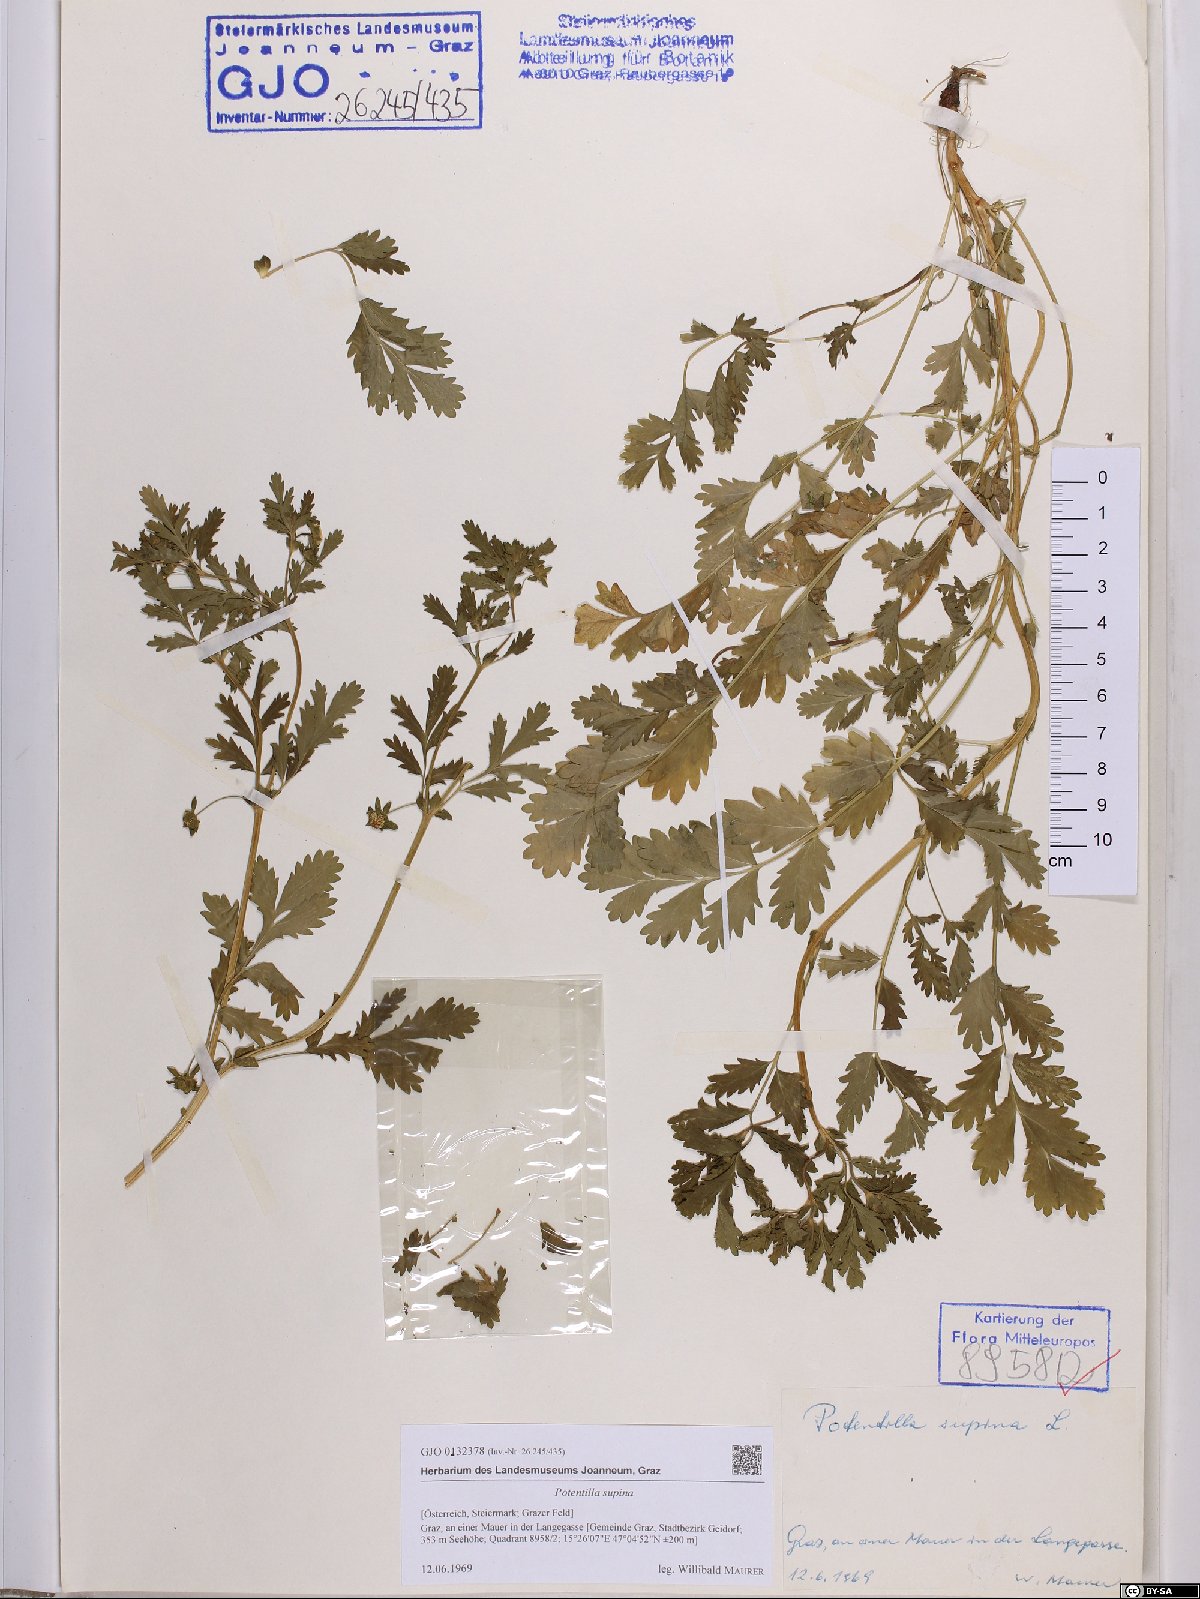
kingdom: Plantae
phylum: Tracheophyta
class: Magnoliopsida
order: Rosales
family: Rosaceae
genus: Potentilla
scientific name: Potentilla supina
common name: Prostrate cinquefoil
